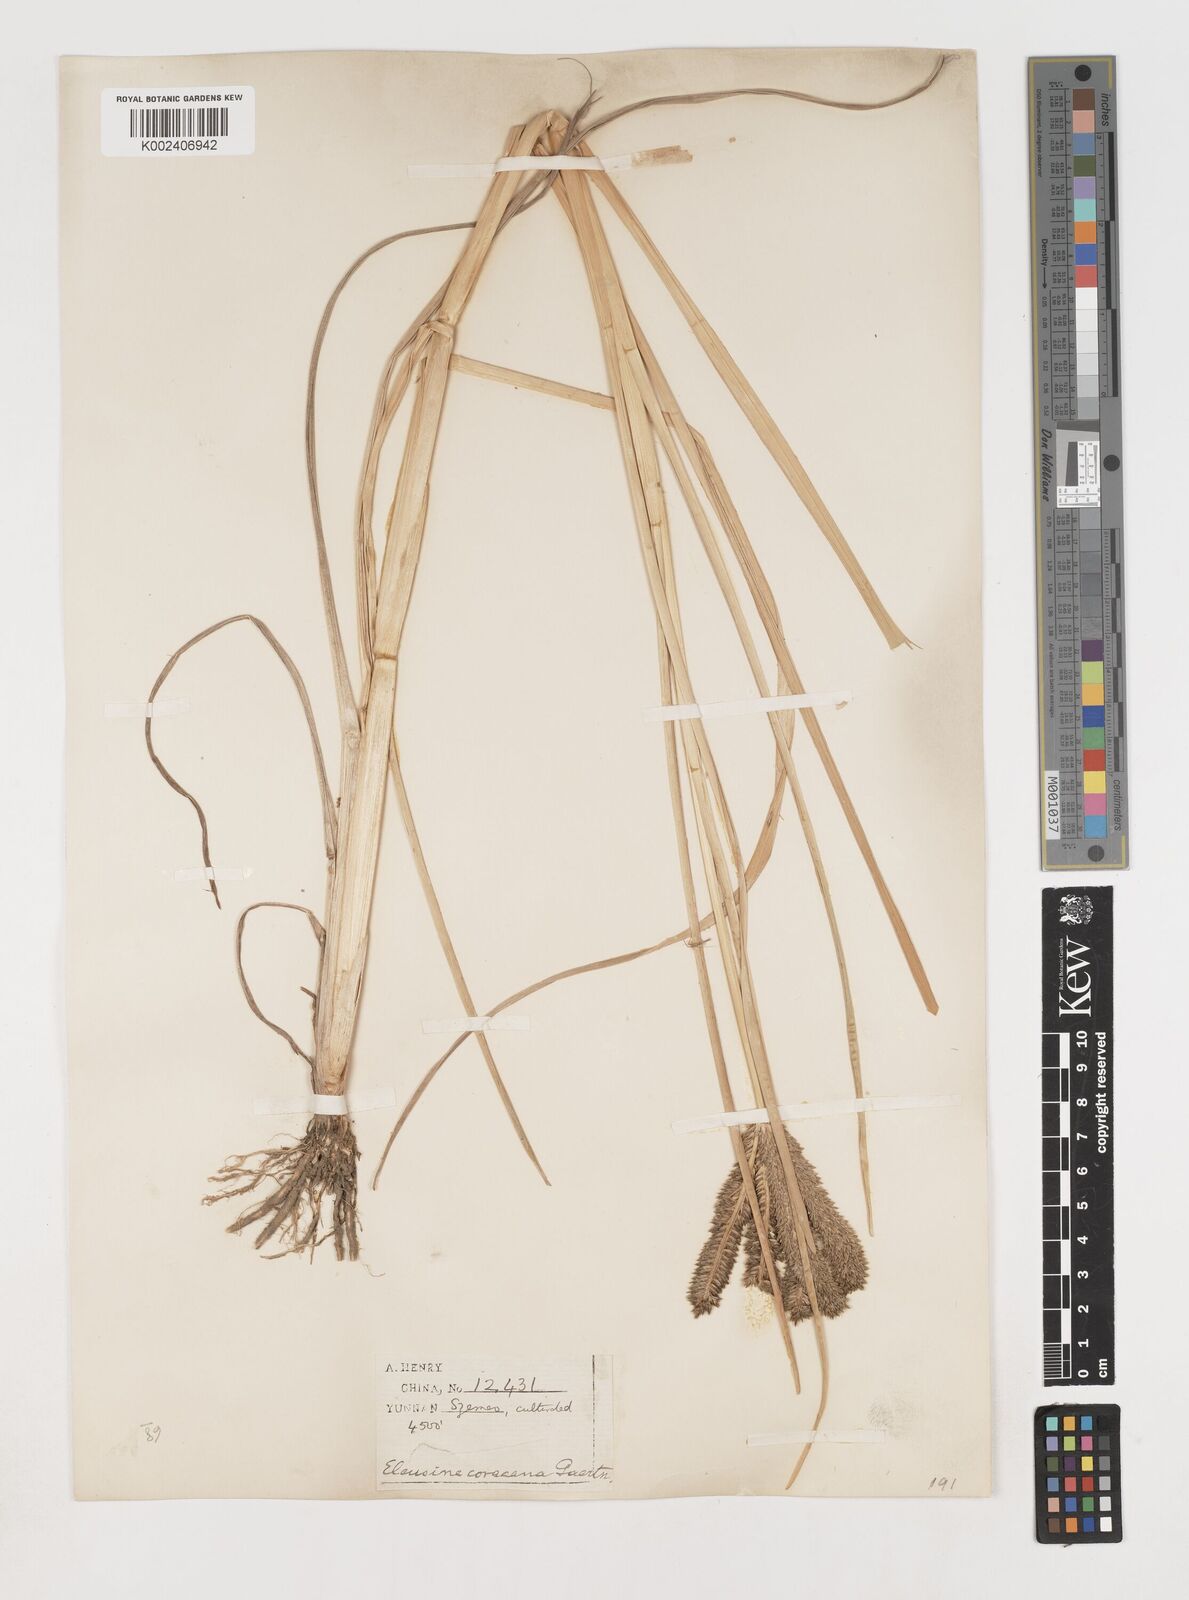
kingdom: Plantae
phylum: Tracheophyta
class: Liliopsida
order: Poales
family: Poaceae
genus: Eleusine
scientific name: Eleusine coracana
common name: Finger millet
